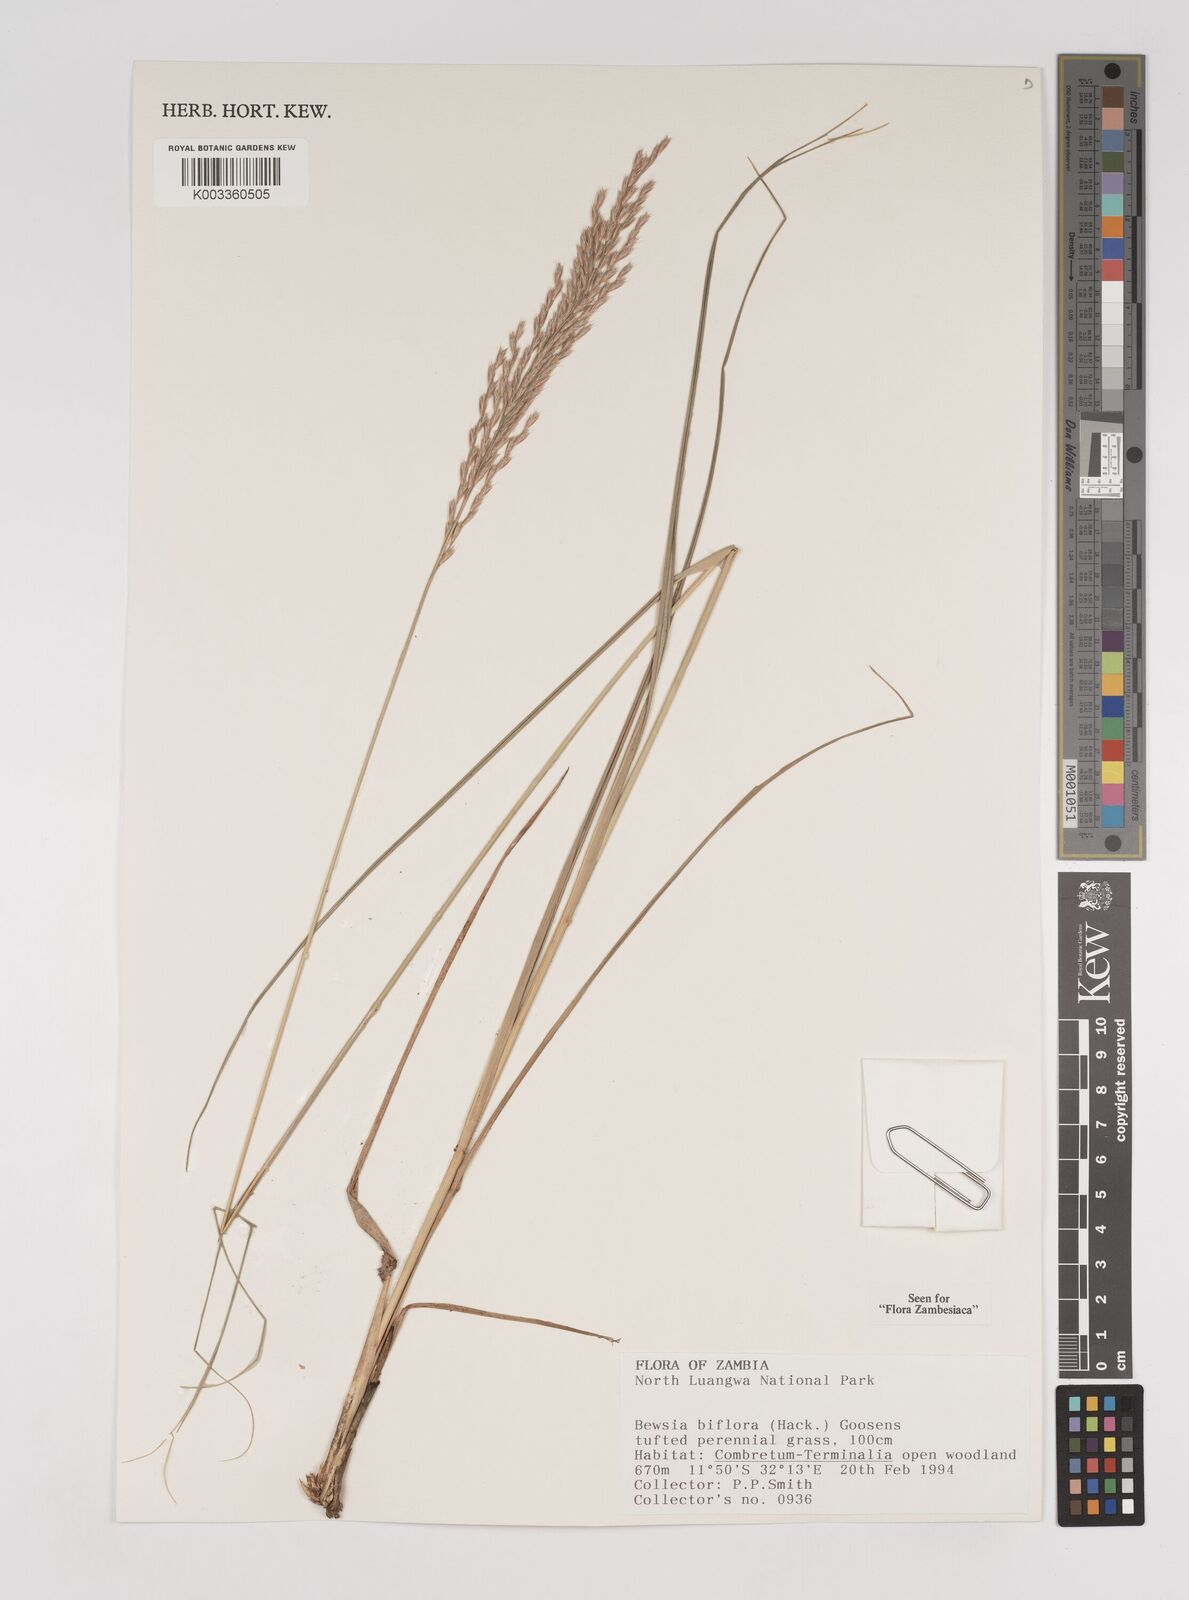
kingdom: Plantae
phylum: Tracheophyta
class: Liliopsida
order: Poales
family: Poaceae
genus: Bewsia
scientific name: Bewsia biflora
